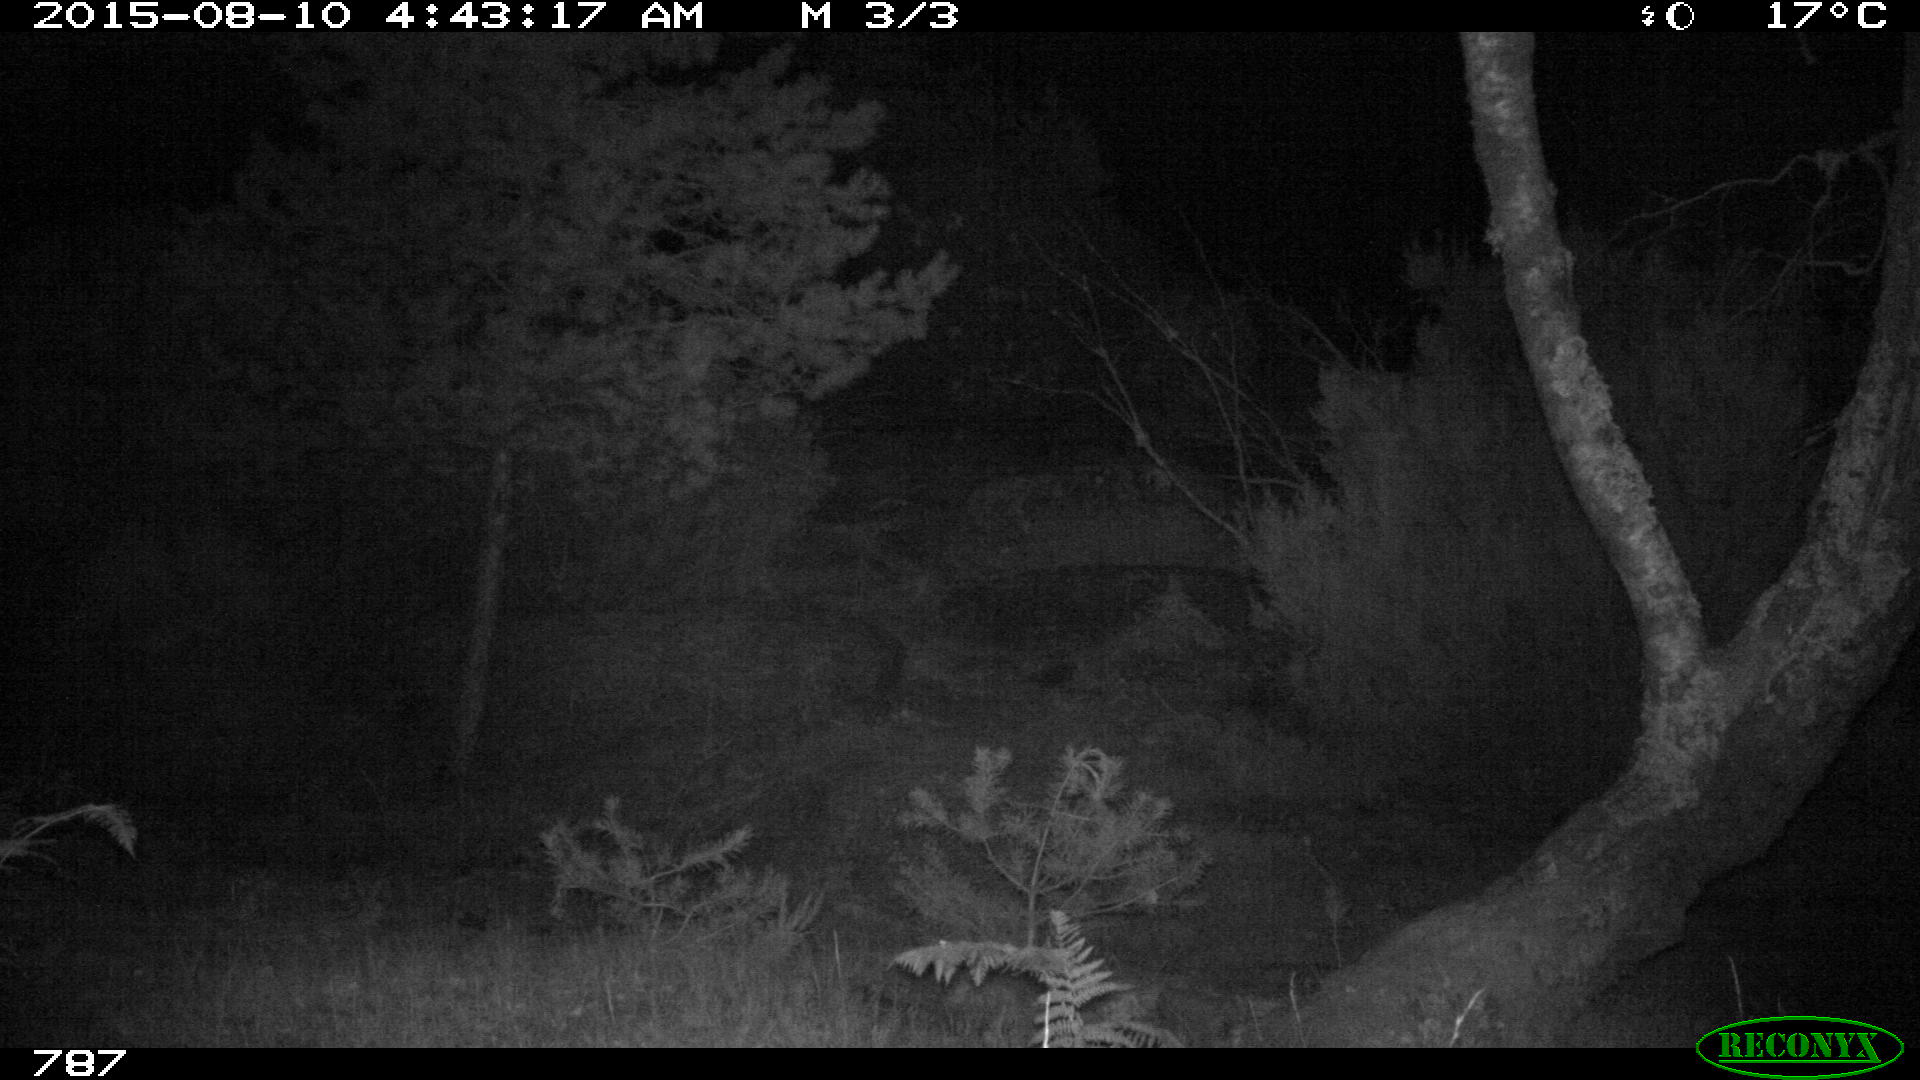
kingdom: Animalia
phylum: Chordata
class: Mammalia
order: Artiodactyla
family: Suidae
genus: Sus
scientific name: Sus scrofa
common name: Wild boar
